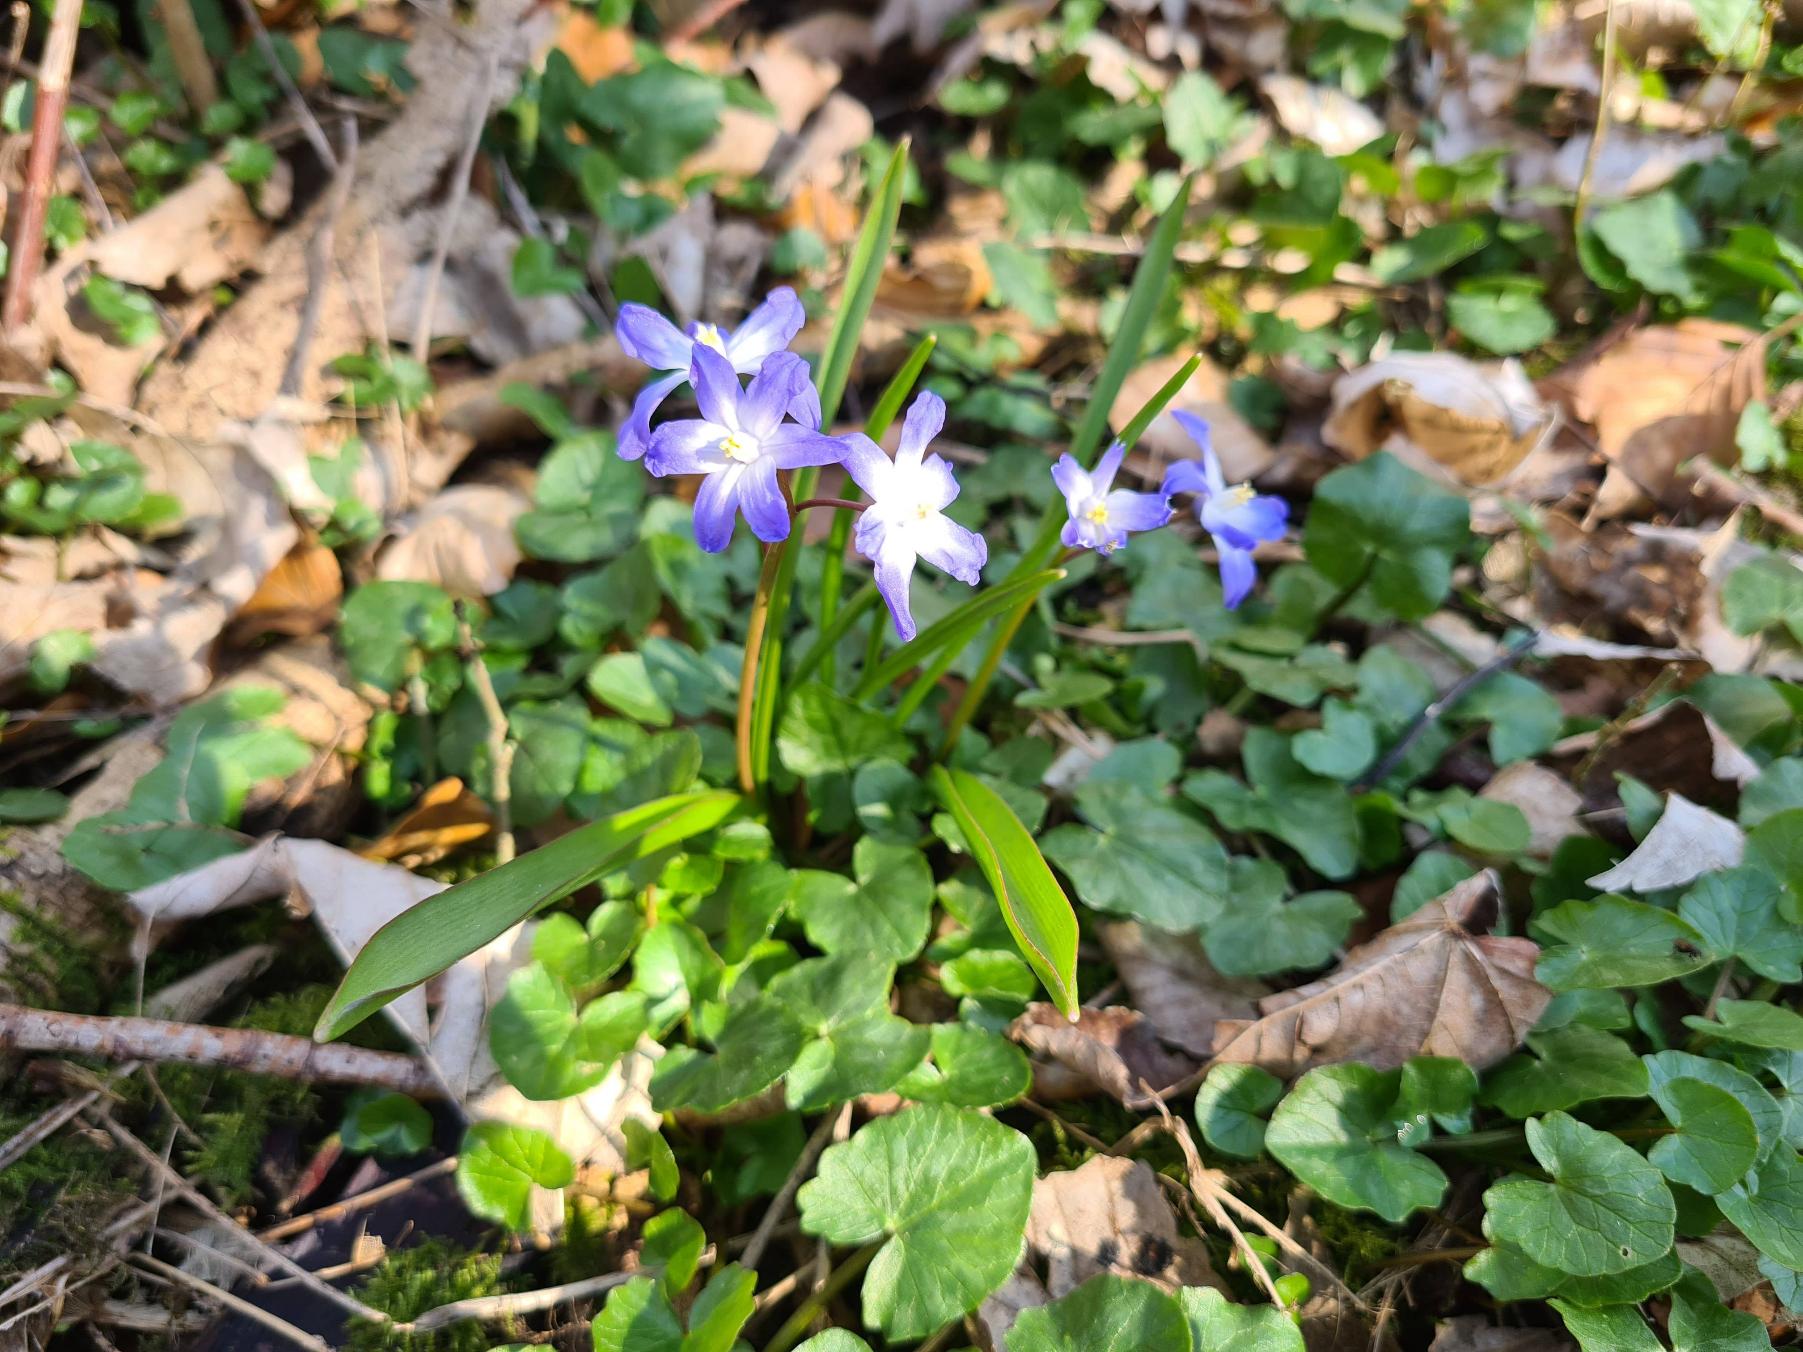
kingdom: Plantae
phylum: Tracheophyta
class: Liliopsida
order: Asparagales
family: Asparagaceae
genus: Scilla
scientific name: Scilla forbesii
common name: Almindelig snepryd
